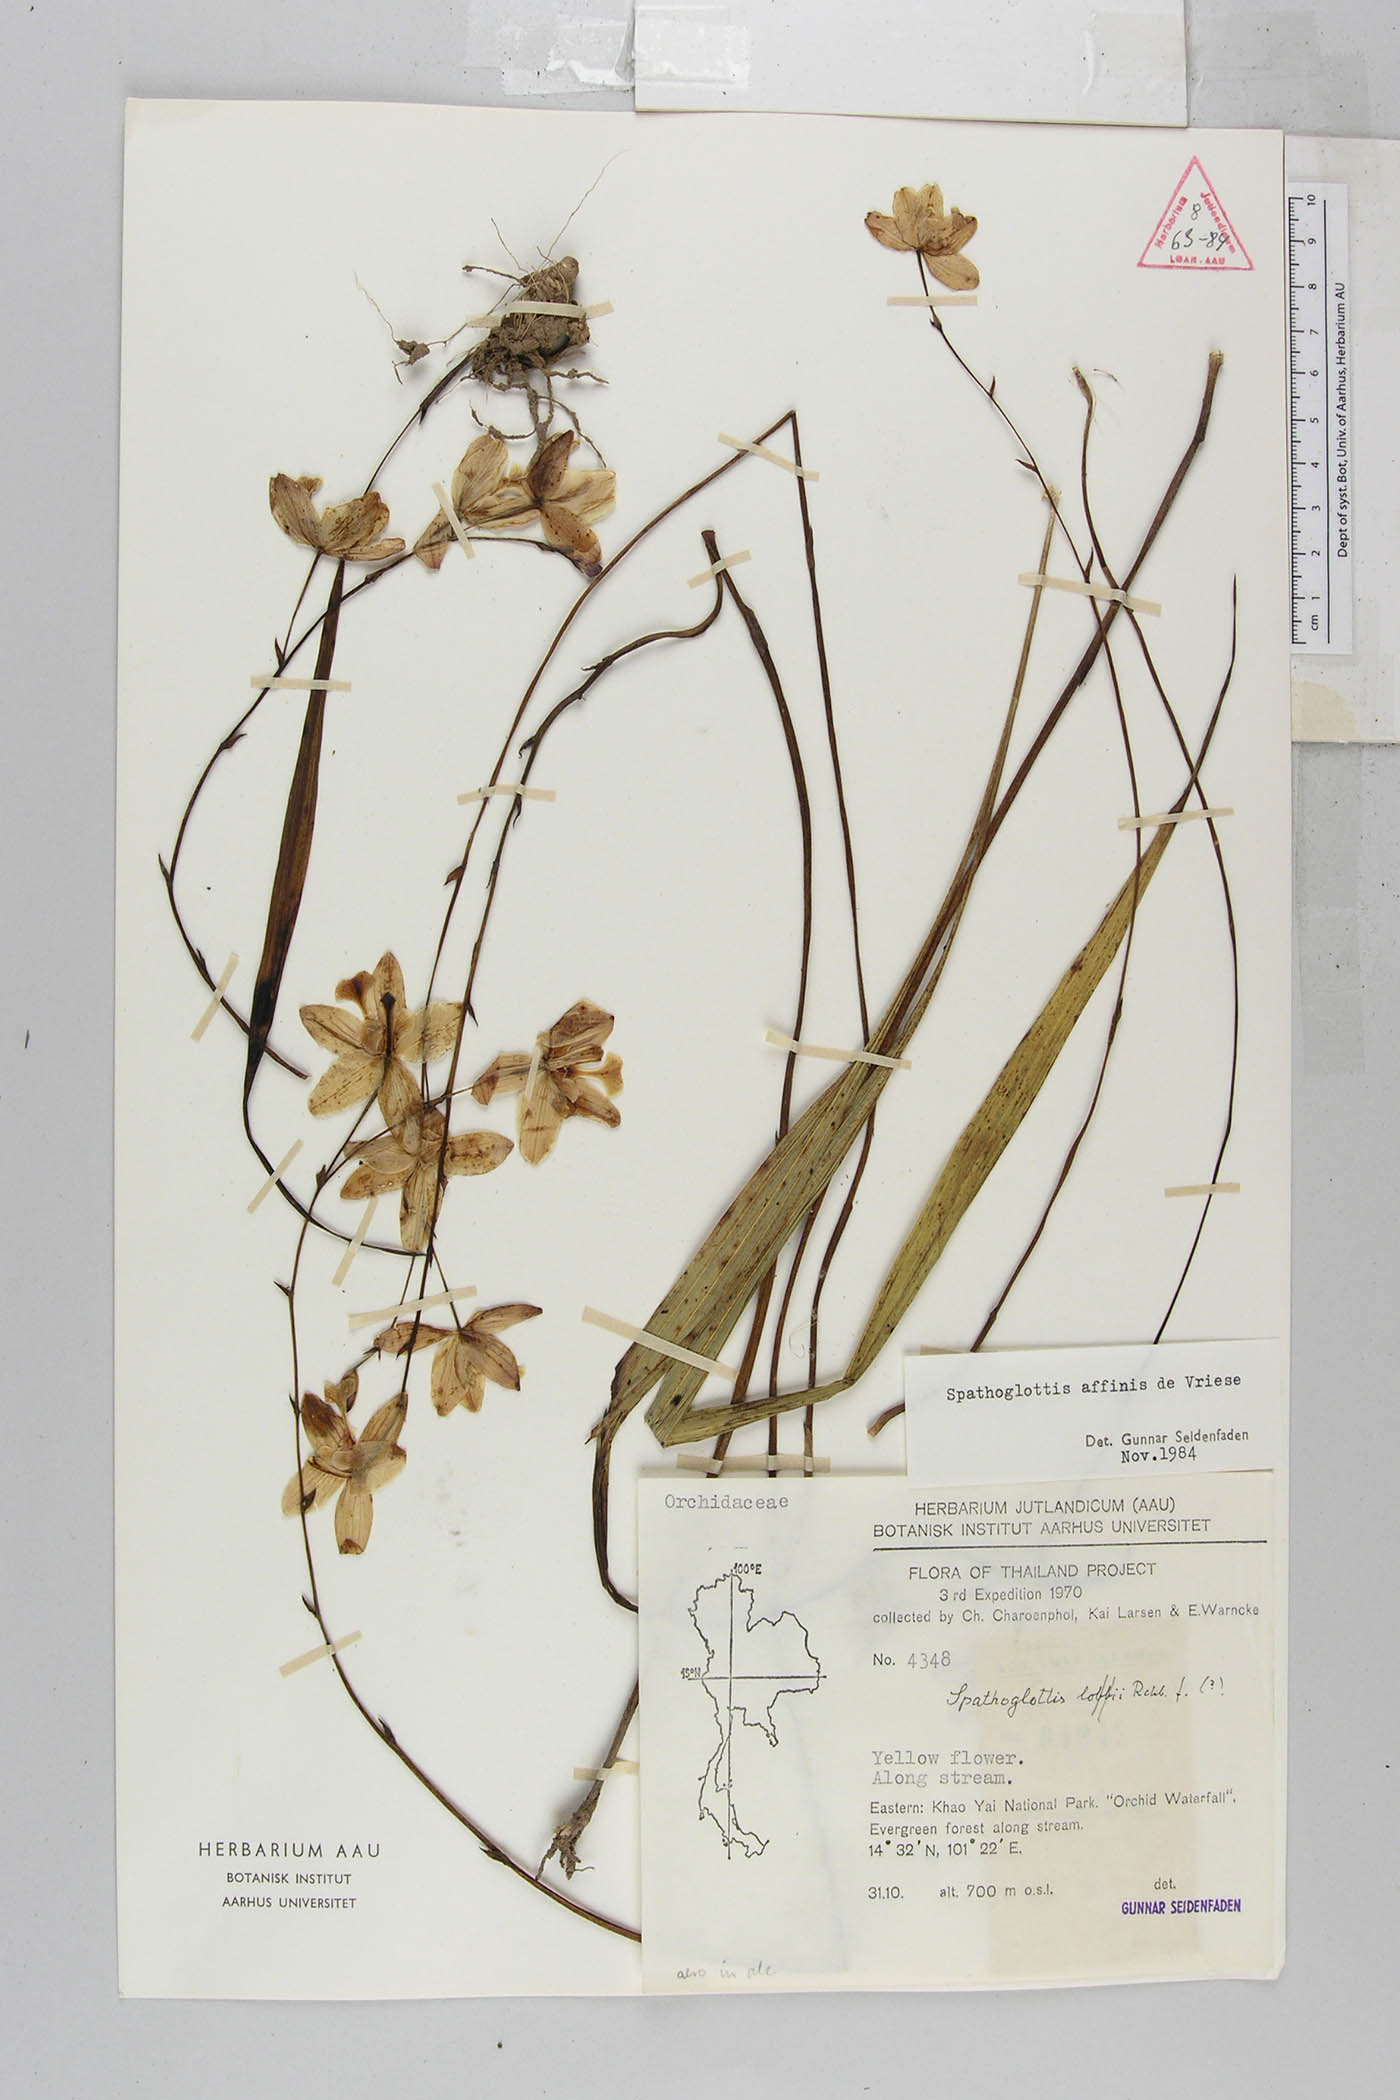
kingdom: Plantae
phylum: Tracheophyta
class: Liliopsida
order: Asparagales
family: Orchidaceae
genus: Spathoglottis
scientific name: Spathoglottis affinis
